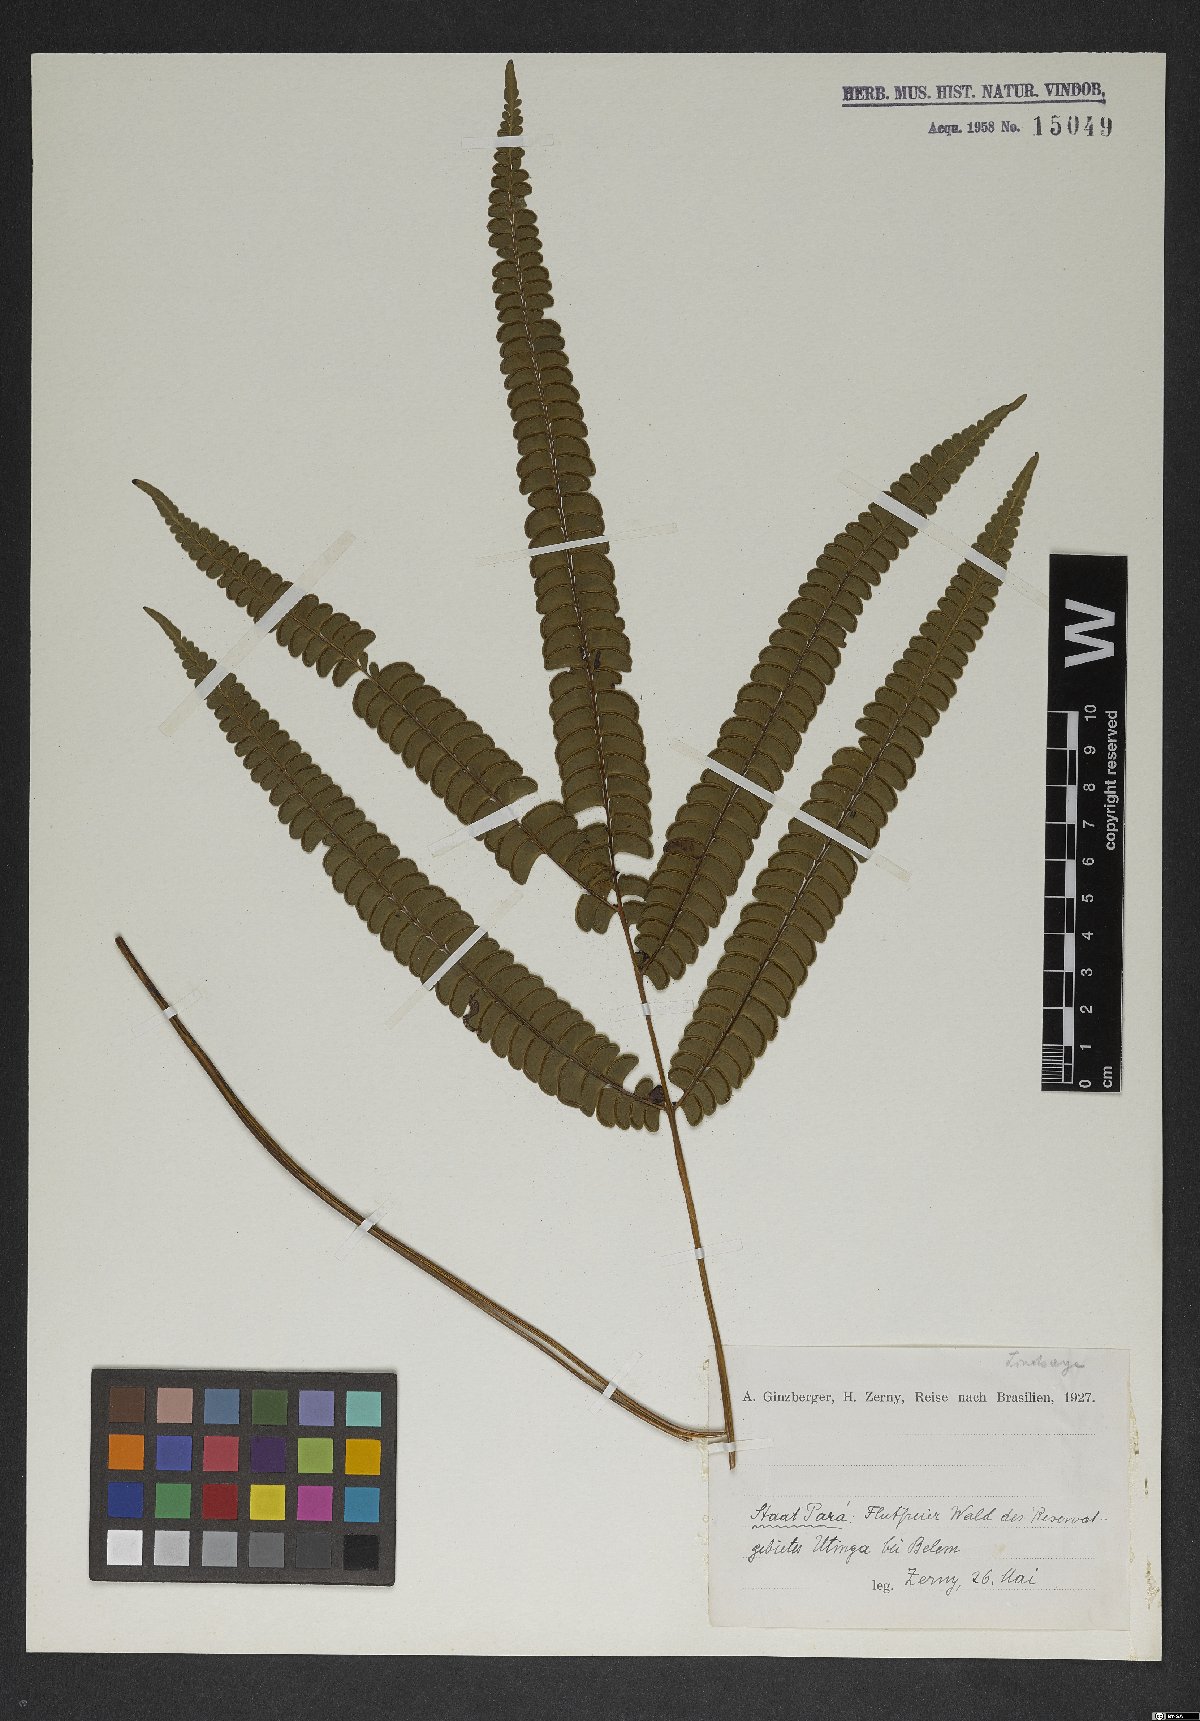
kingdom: Plantae
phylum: Tracheophyta
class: Polypodiopsida
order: Polypodiales
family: Lindsaeaceae
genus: Lindsaea
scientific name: Lindsaea
